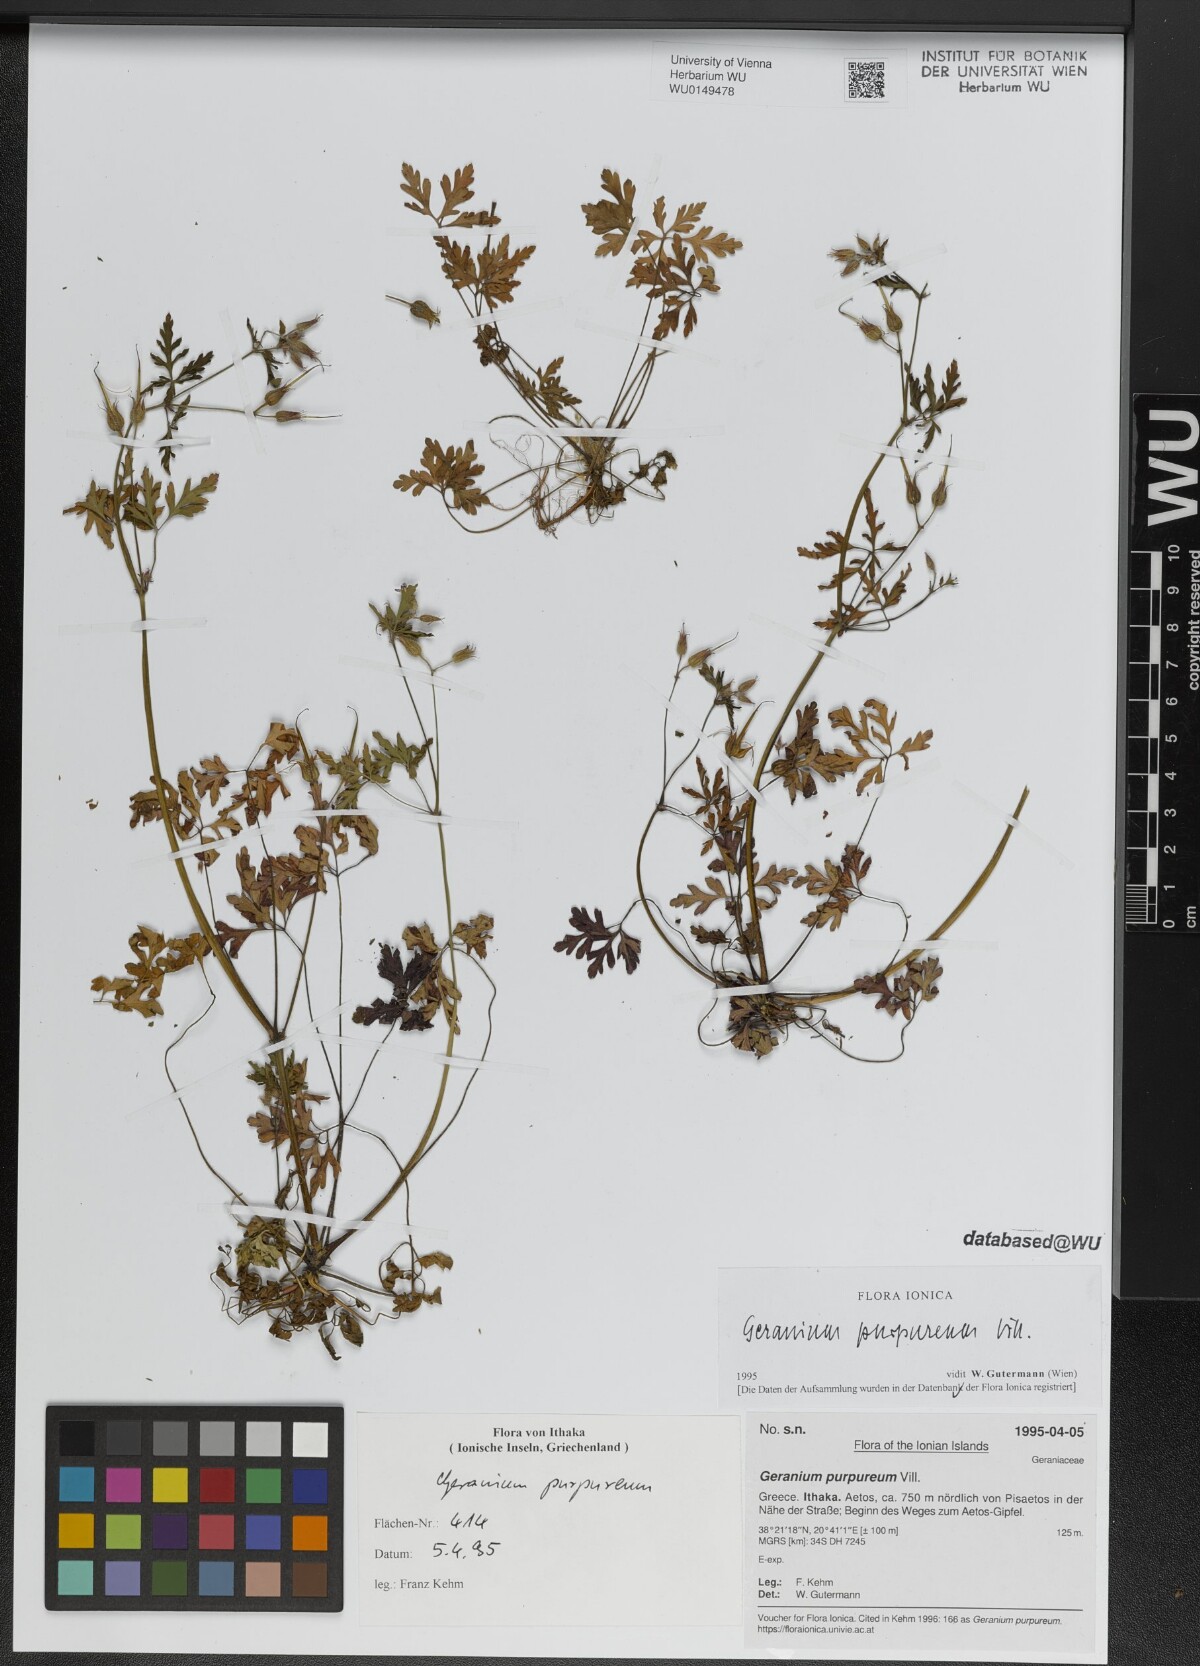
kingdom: Plantae
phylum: Tracheophyta
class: Magnoliopsida
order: Geraniales
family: Geraniaceae
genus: Geranium
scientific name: Geranium purpureum
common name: Little-robin
